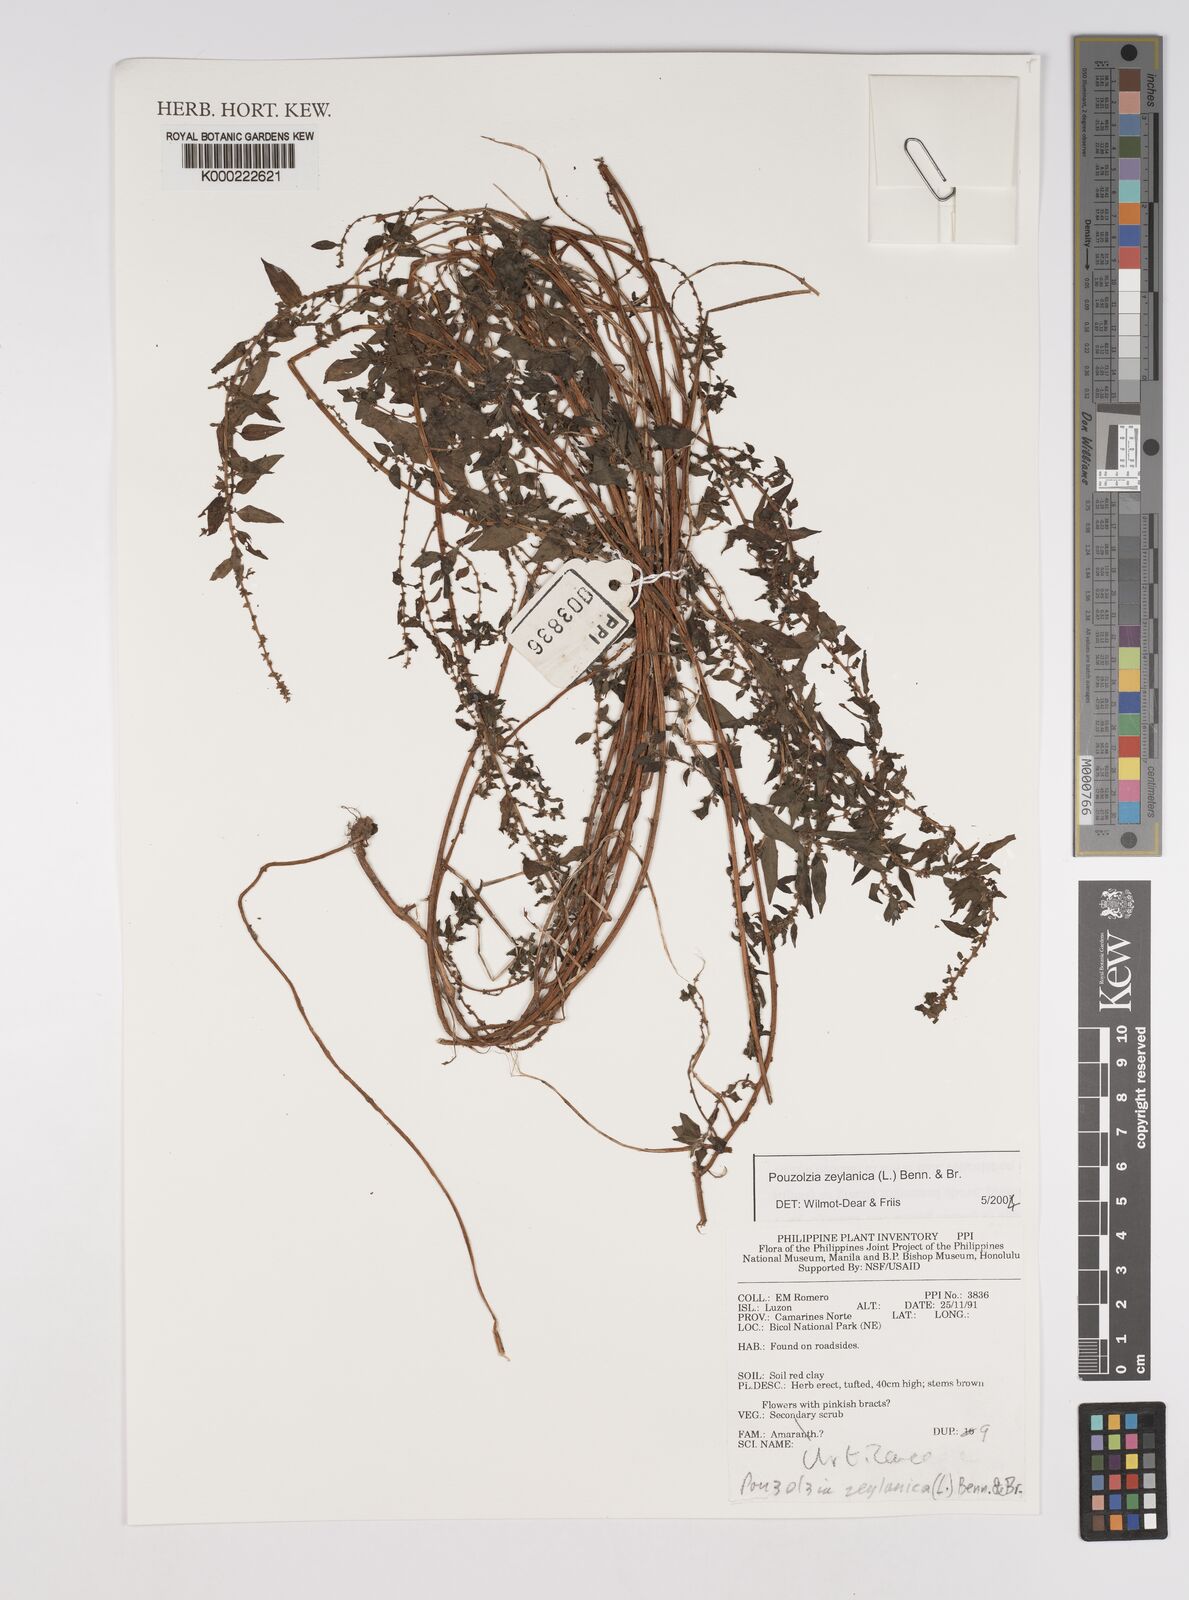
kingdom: Plantae
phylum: Tracheophyta
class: Magnoliopsida
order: Rosales
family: Urticaceae
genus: Pouzolzia
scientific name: Pouzolzia zeylanica
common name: Graceful pouzolzsbush
